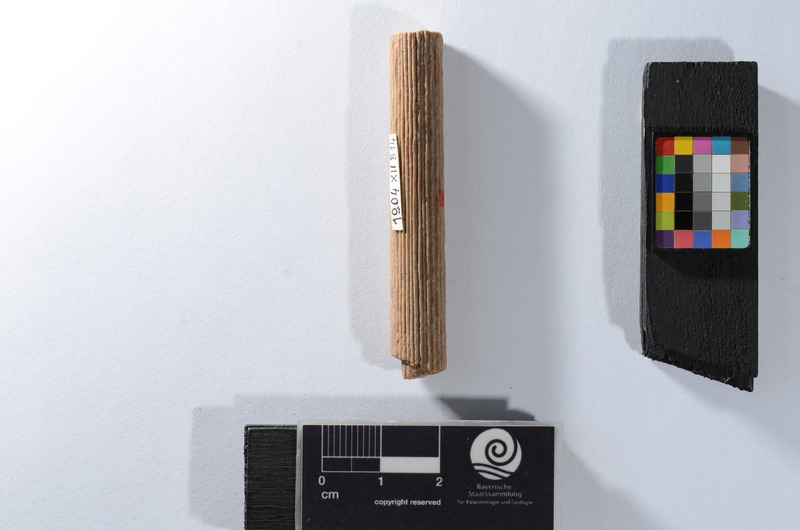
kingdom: Animalia
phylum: Chordata
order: Perciformes
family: Scombridae
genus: Cylindracanthus
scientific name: Cylindracanthus Coelorhynchus rectus
